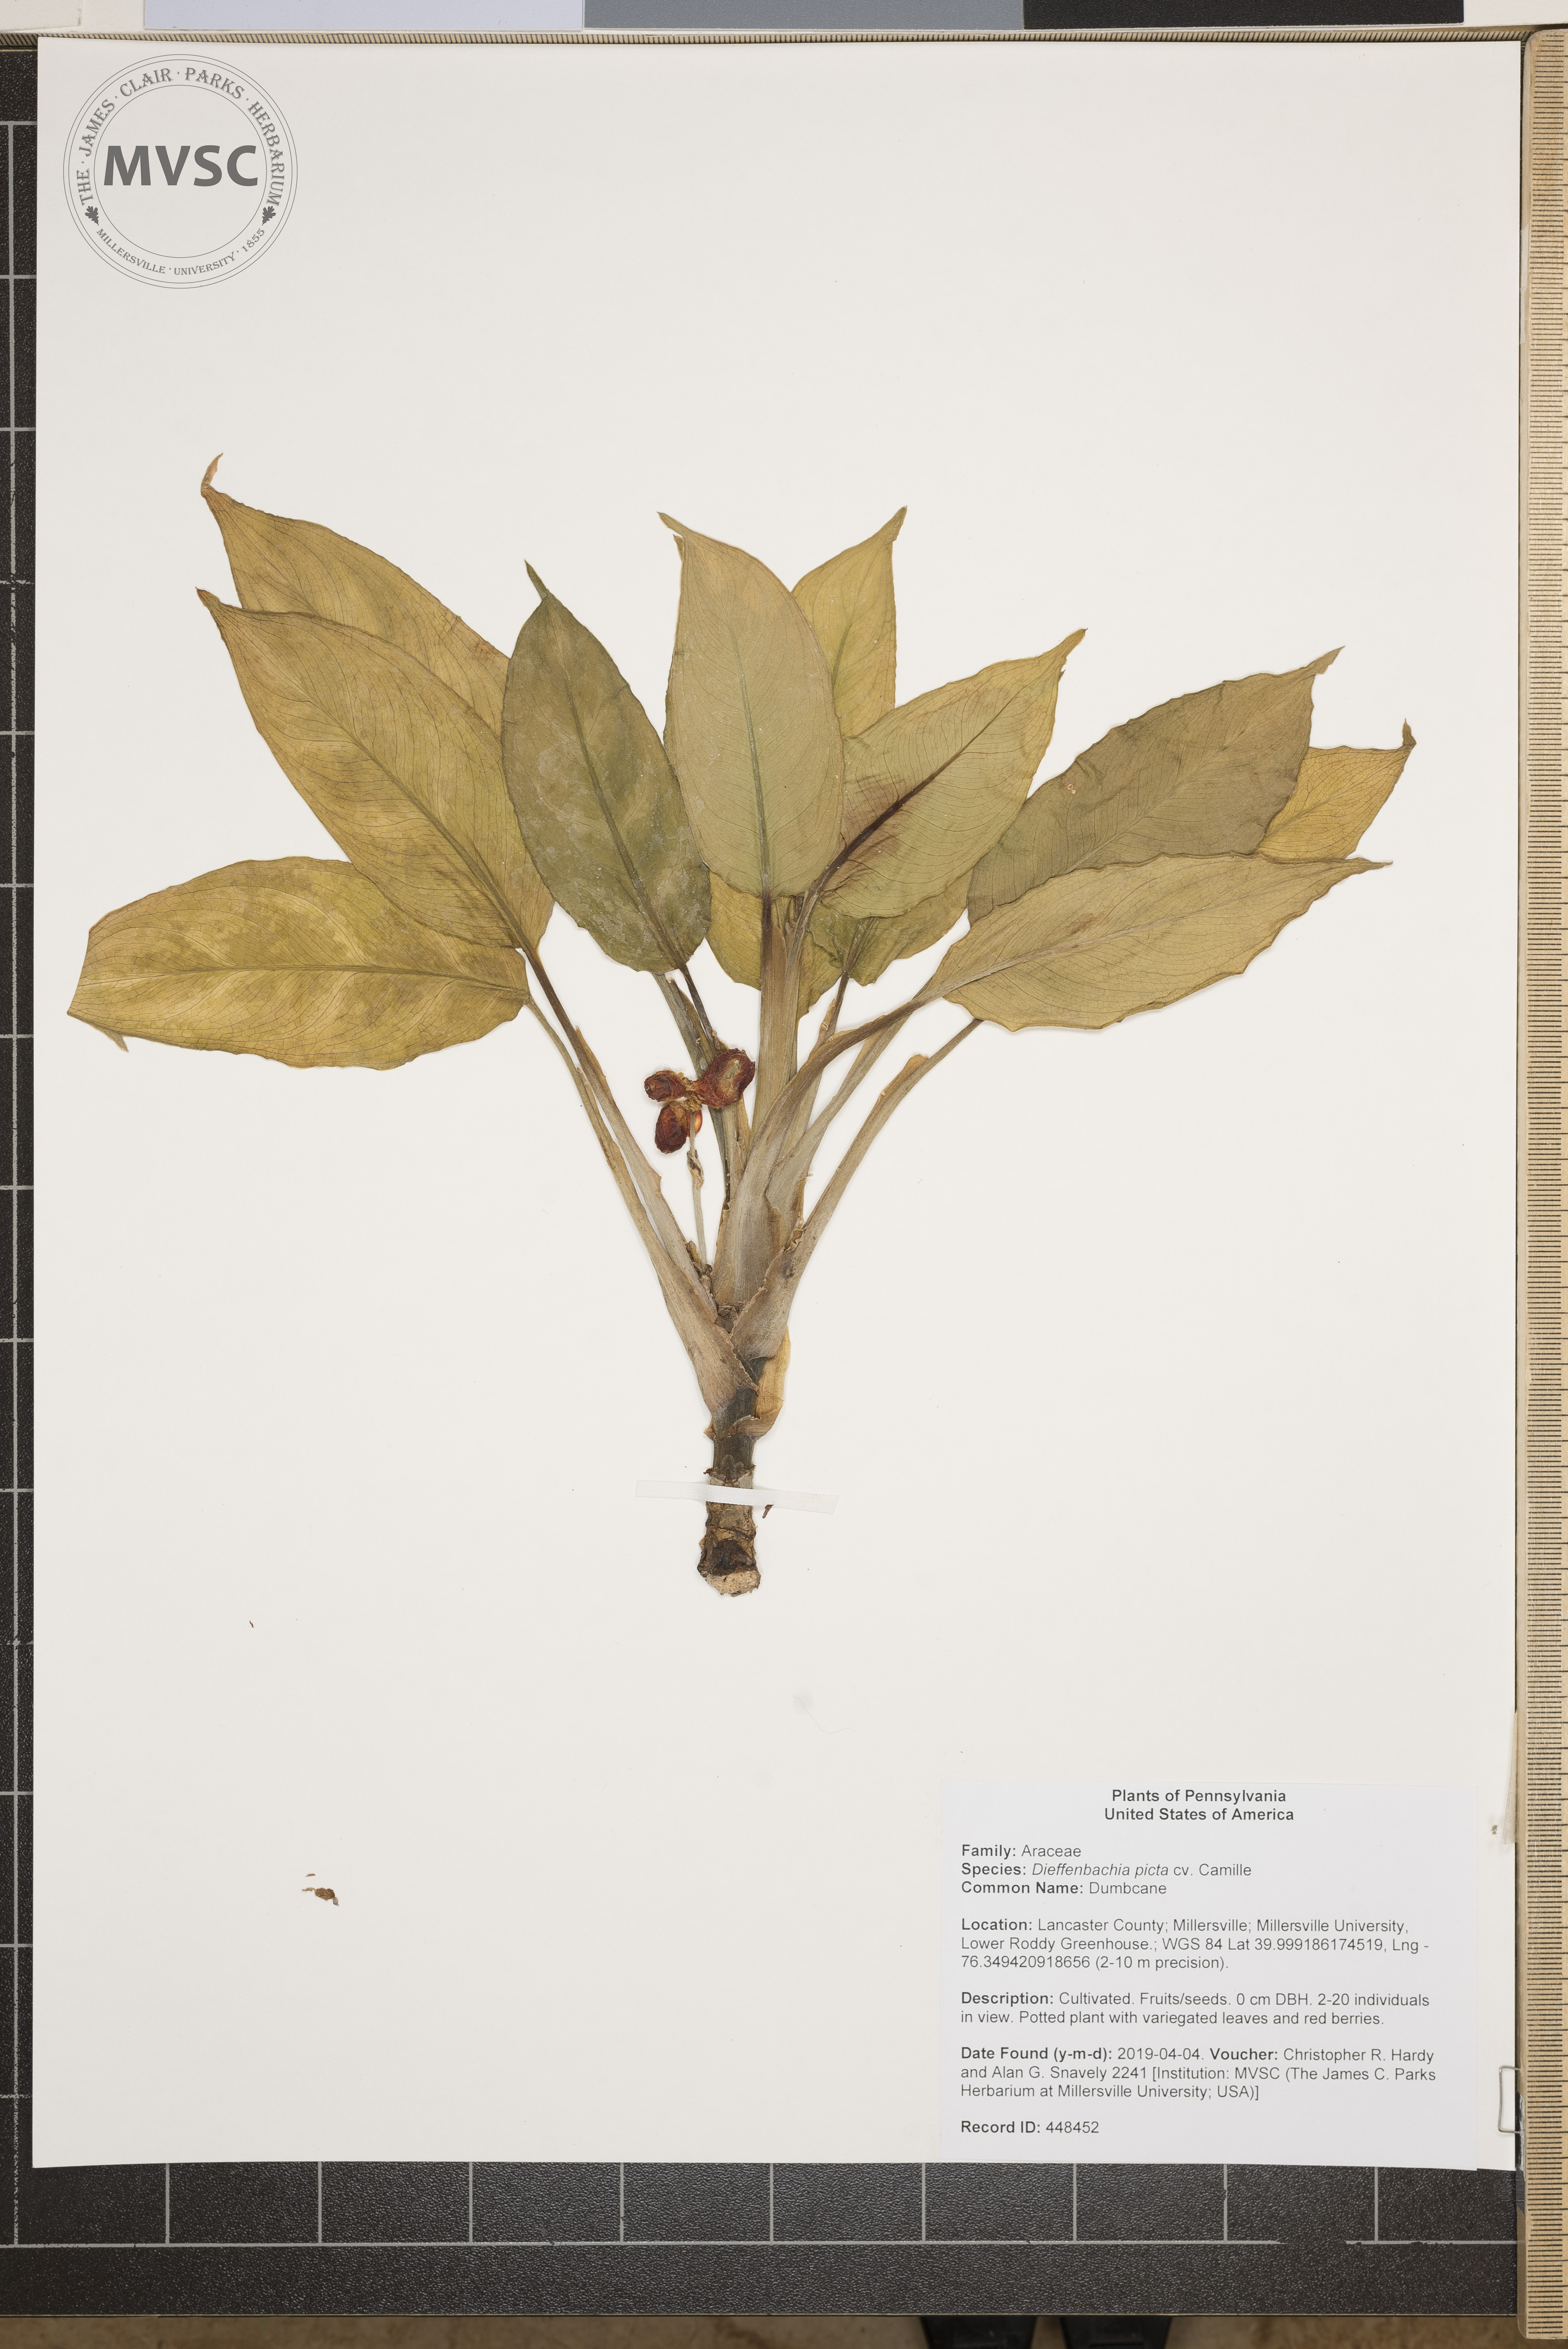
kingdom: Plantae
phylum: Tracheophyta
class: Liliopsida
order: Alismatales
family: Araceae
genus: Dieffenbachia
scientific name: Dieffenbachia seguine
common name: Dumbcane
